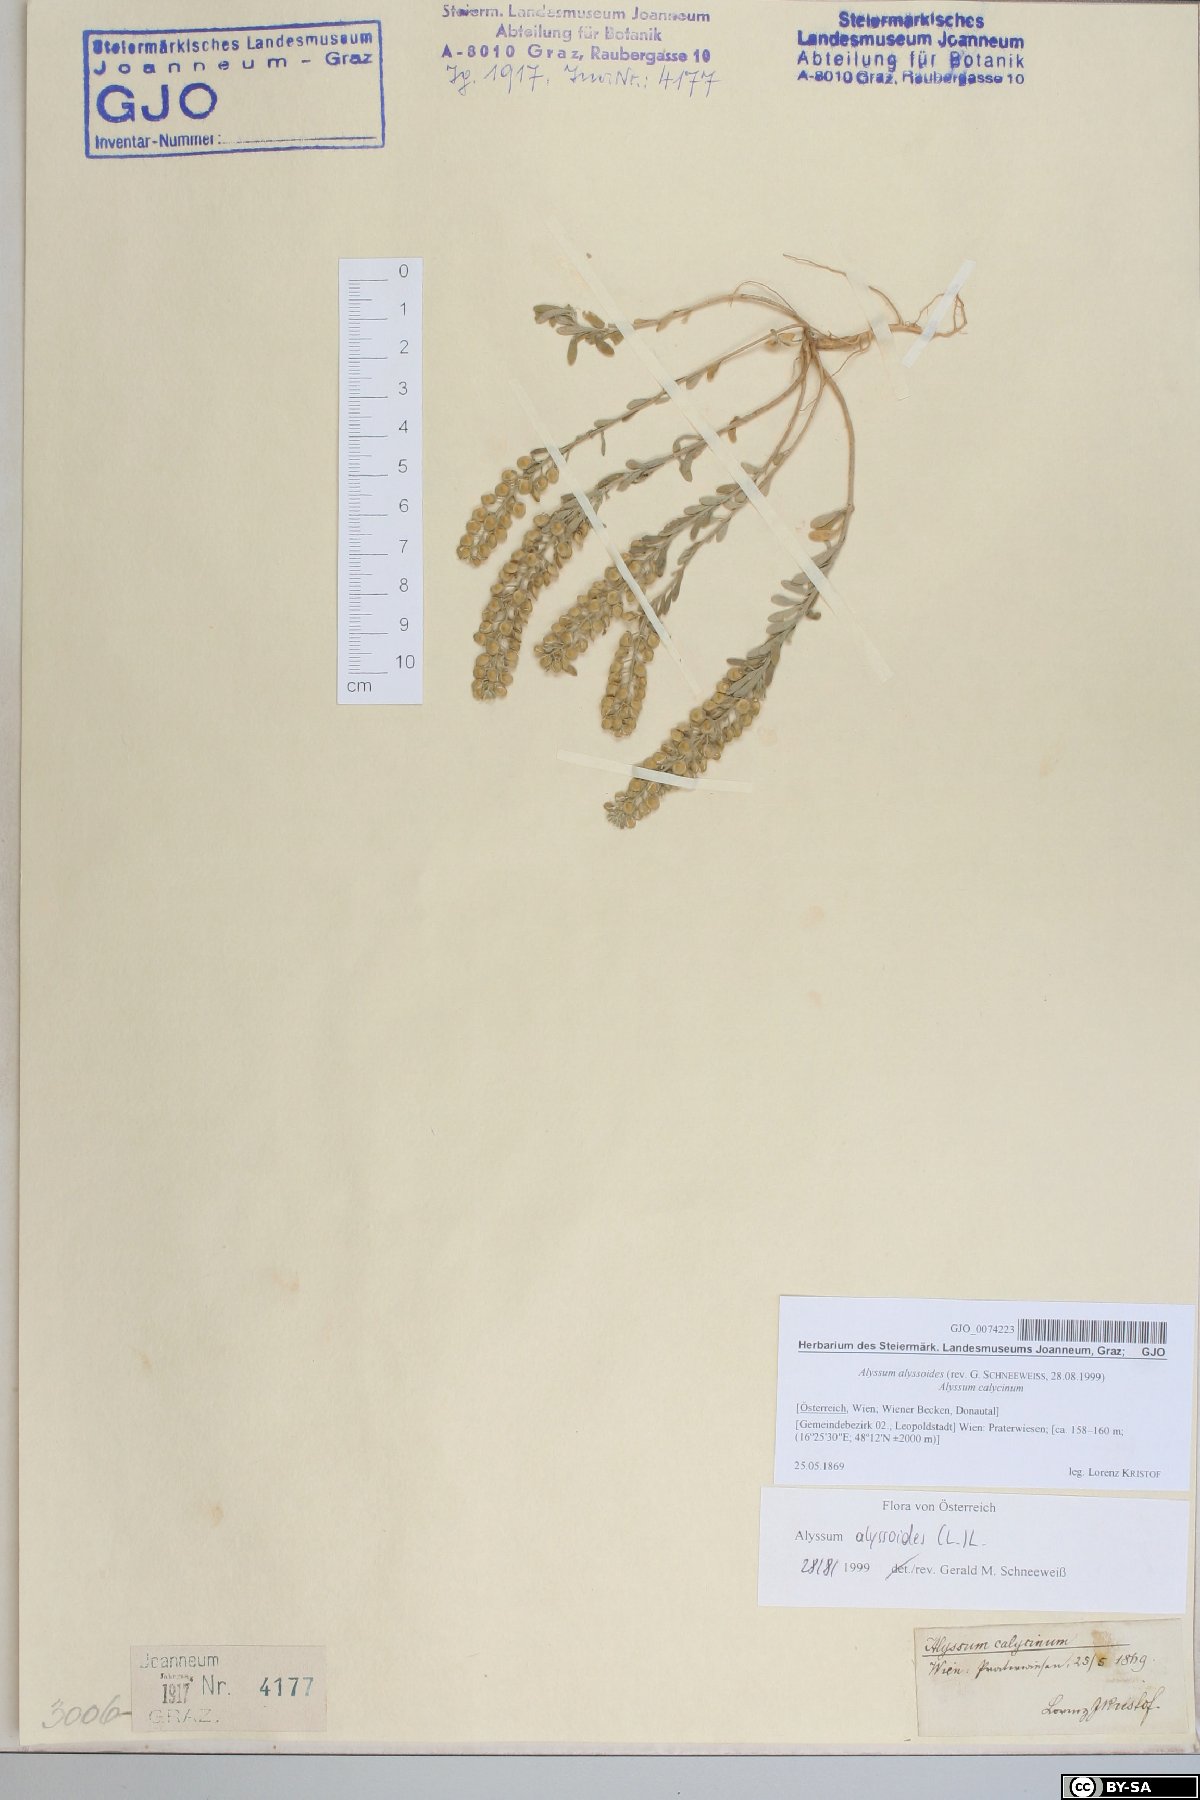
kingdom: Plantae
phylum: Tracheophyta
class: Magnoliopsida
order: Brassicales
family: Brassicaceae
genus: Alyssum
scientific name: Alyssum alyssoides
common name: Small alison
